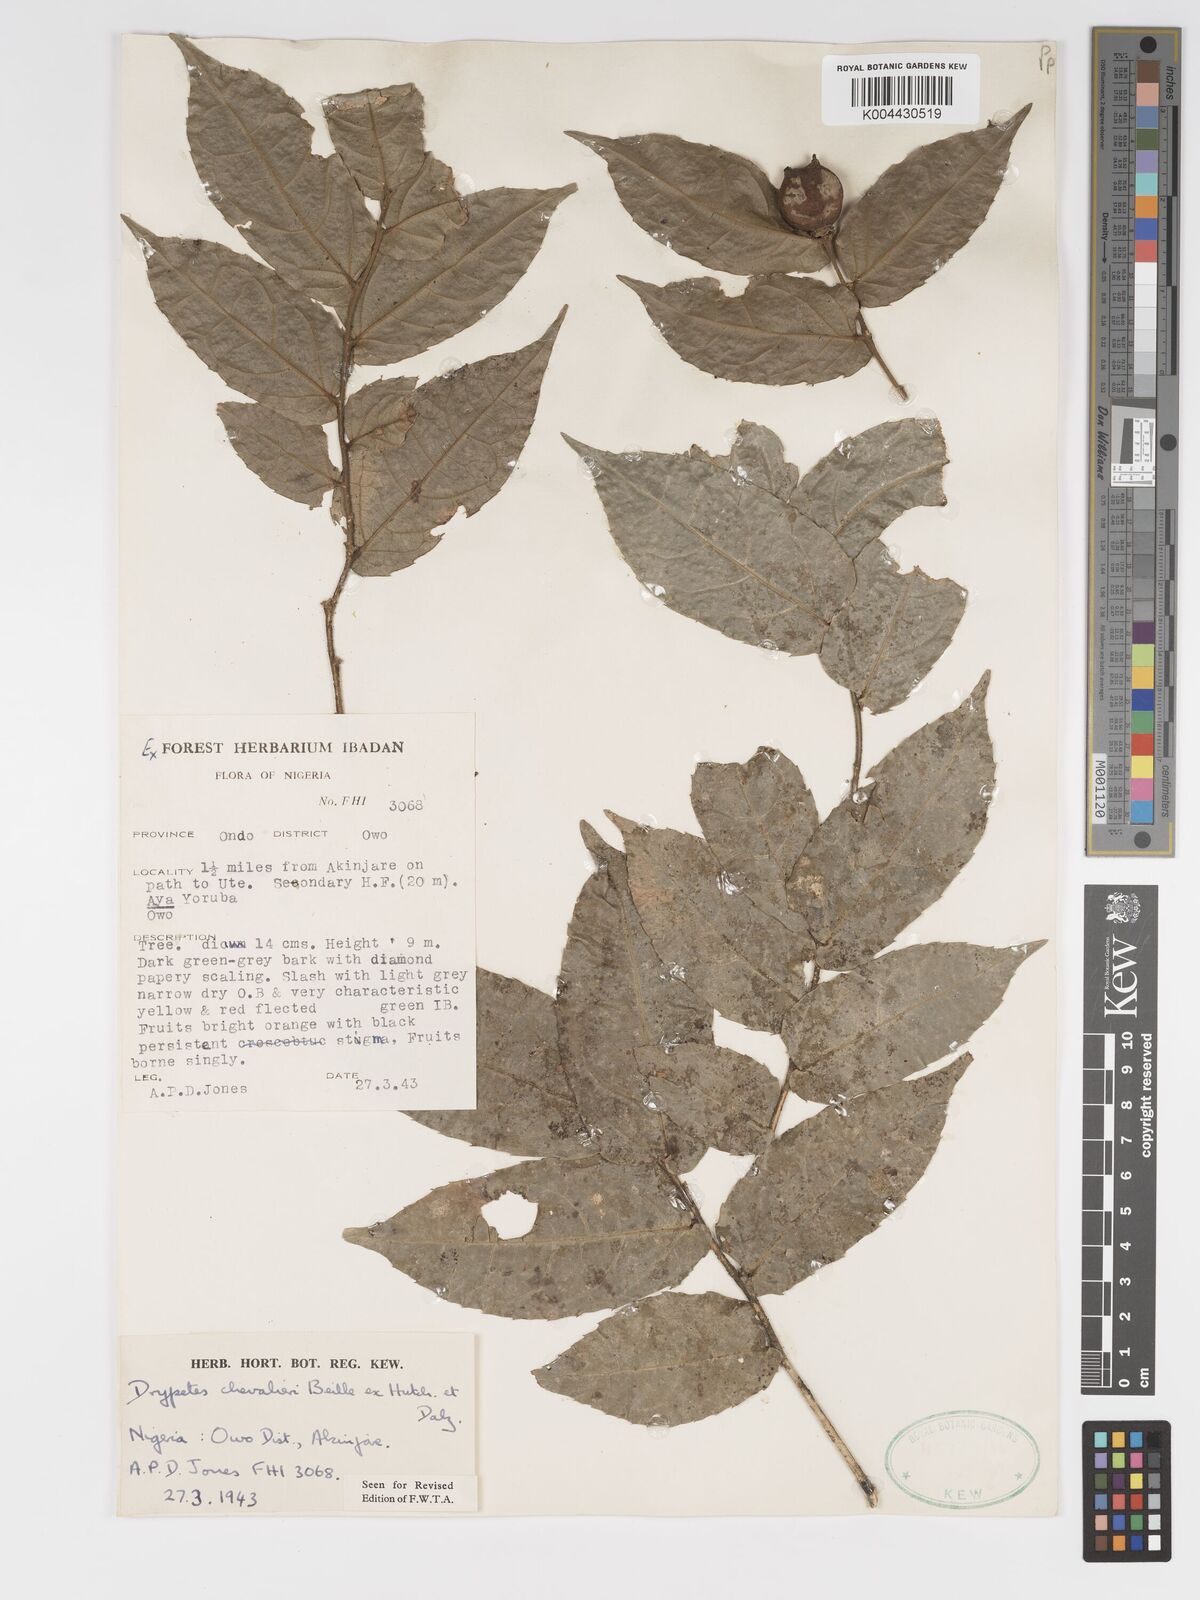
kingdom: Plantae
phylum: Tracheophyta
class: Magnoliopsida
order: Malpighiales
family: Putranjivaceae
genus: Drypetes
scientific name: Drypetes chevalieri
